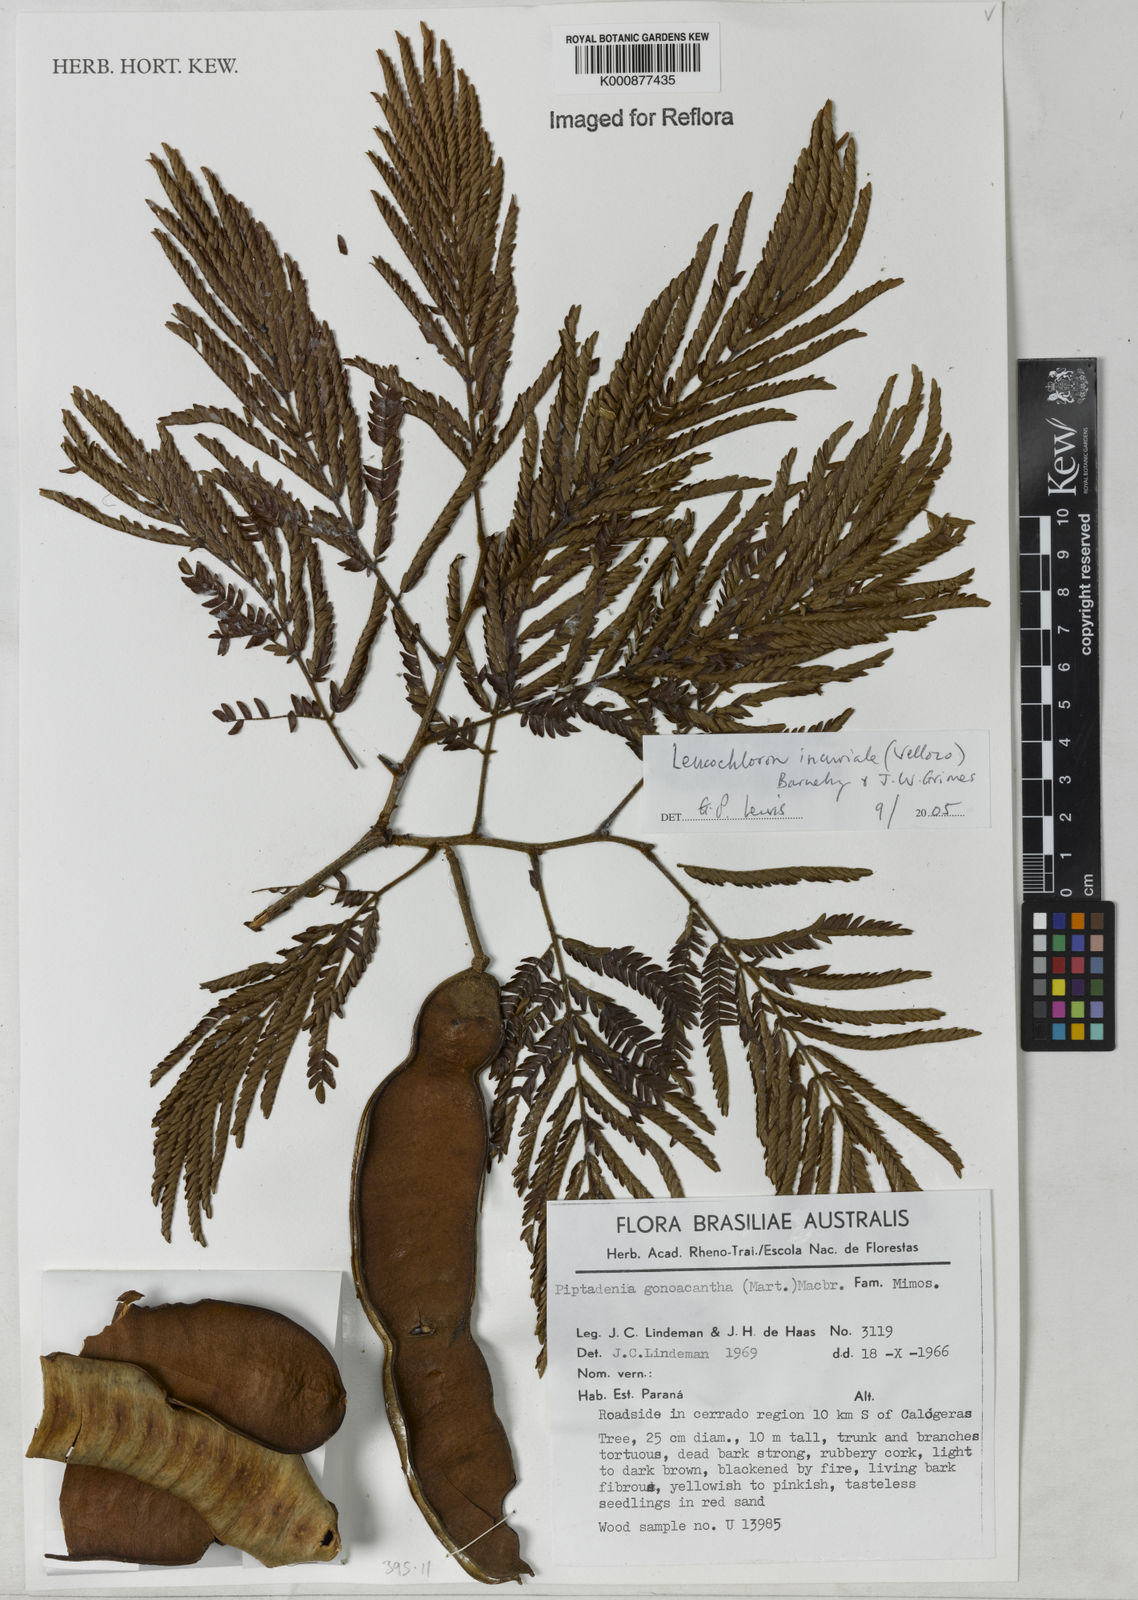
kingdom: Plantae
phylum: Tracheophyta
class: Magnoliopsida
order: Fabales
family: Fabaceae
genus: Leucochloron
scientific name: Leucochloron incuriale
